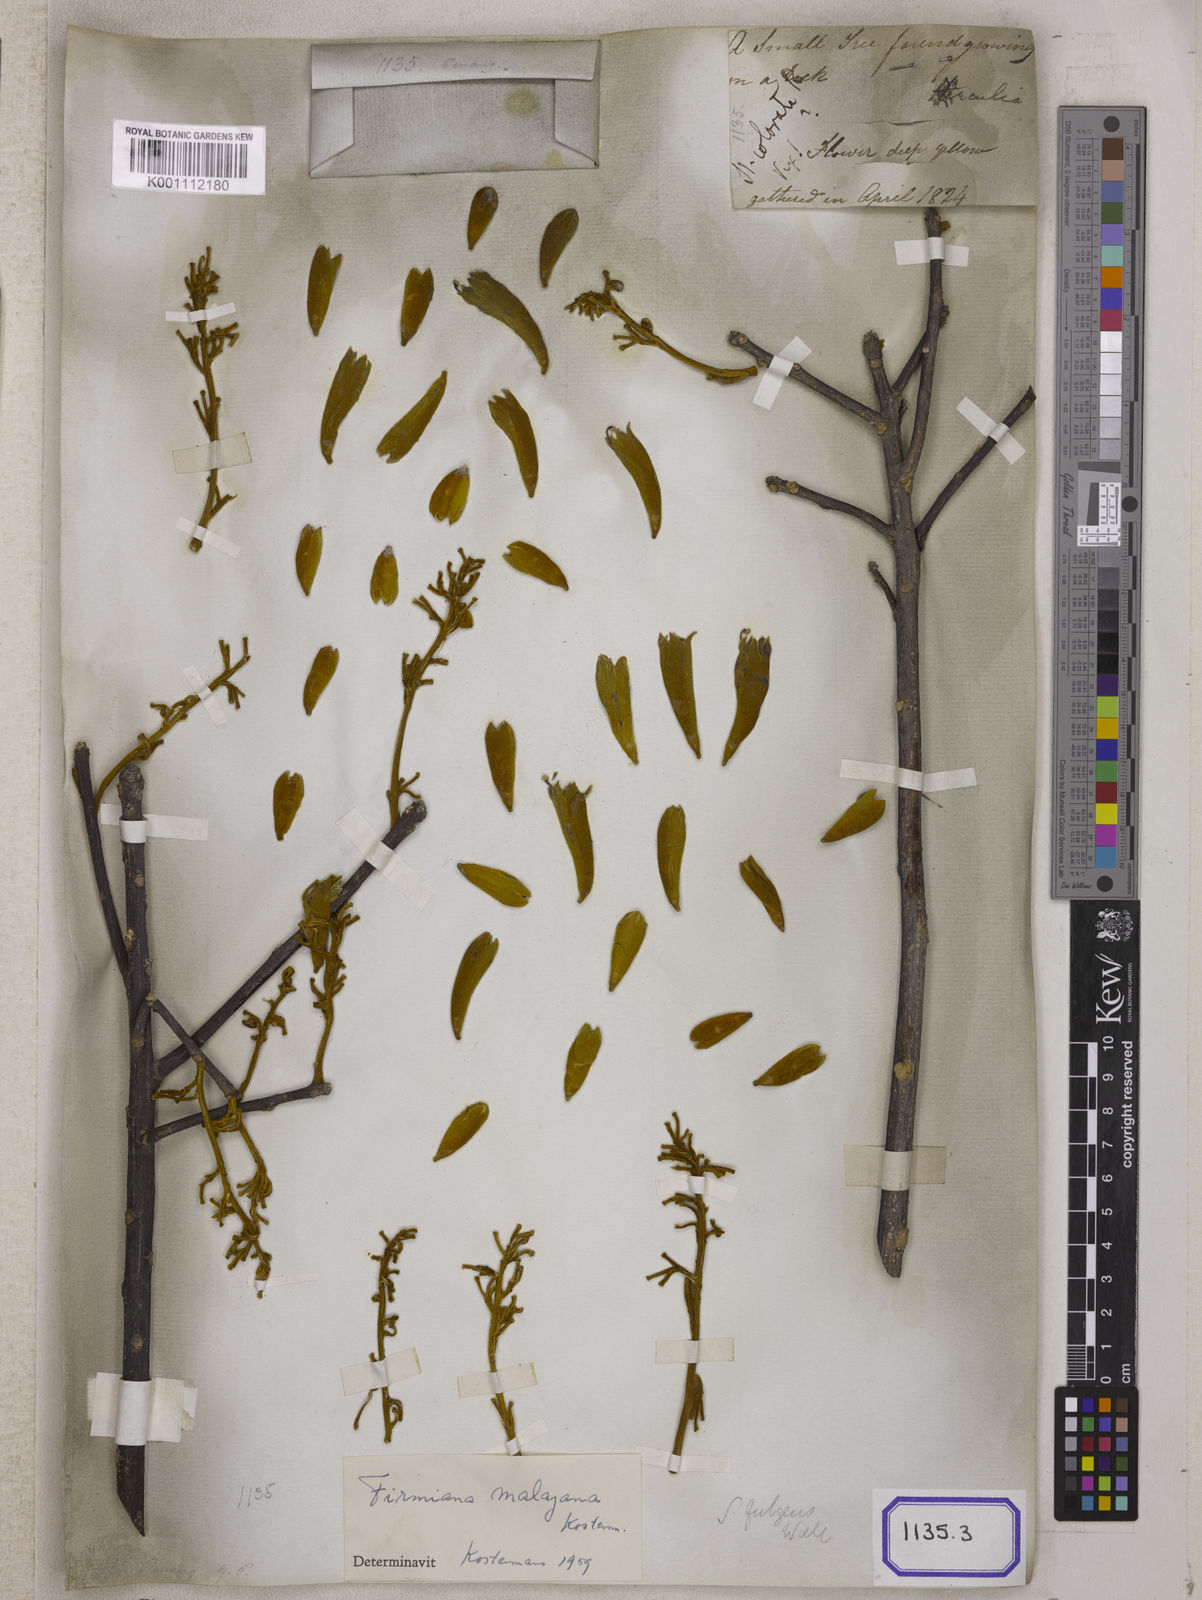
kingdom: Plantae
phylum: Tracheophyta
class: Magnoliopsida
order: Malvales
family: Malvaceae
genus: Sterculia
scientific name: Sterculia
